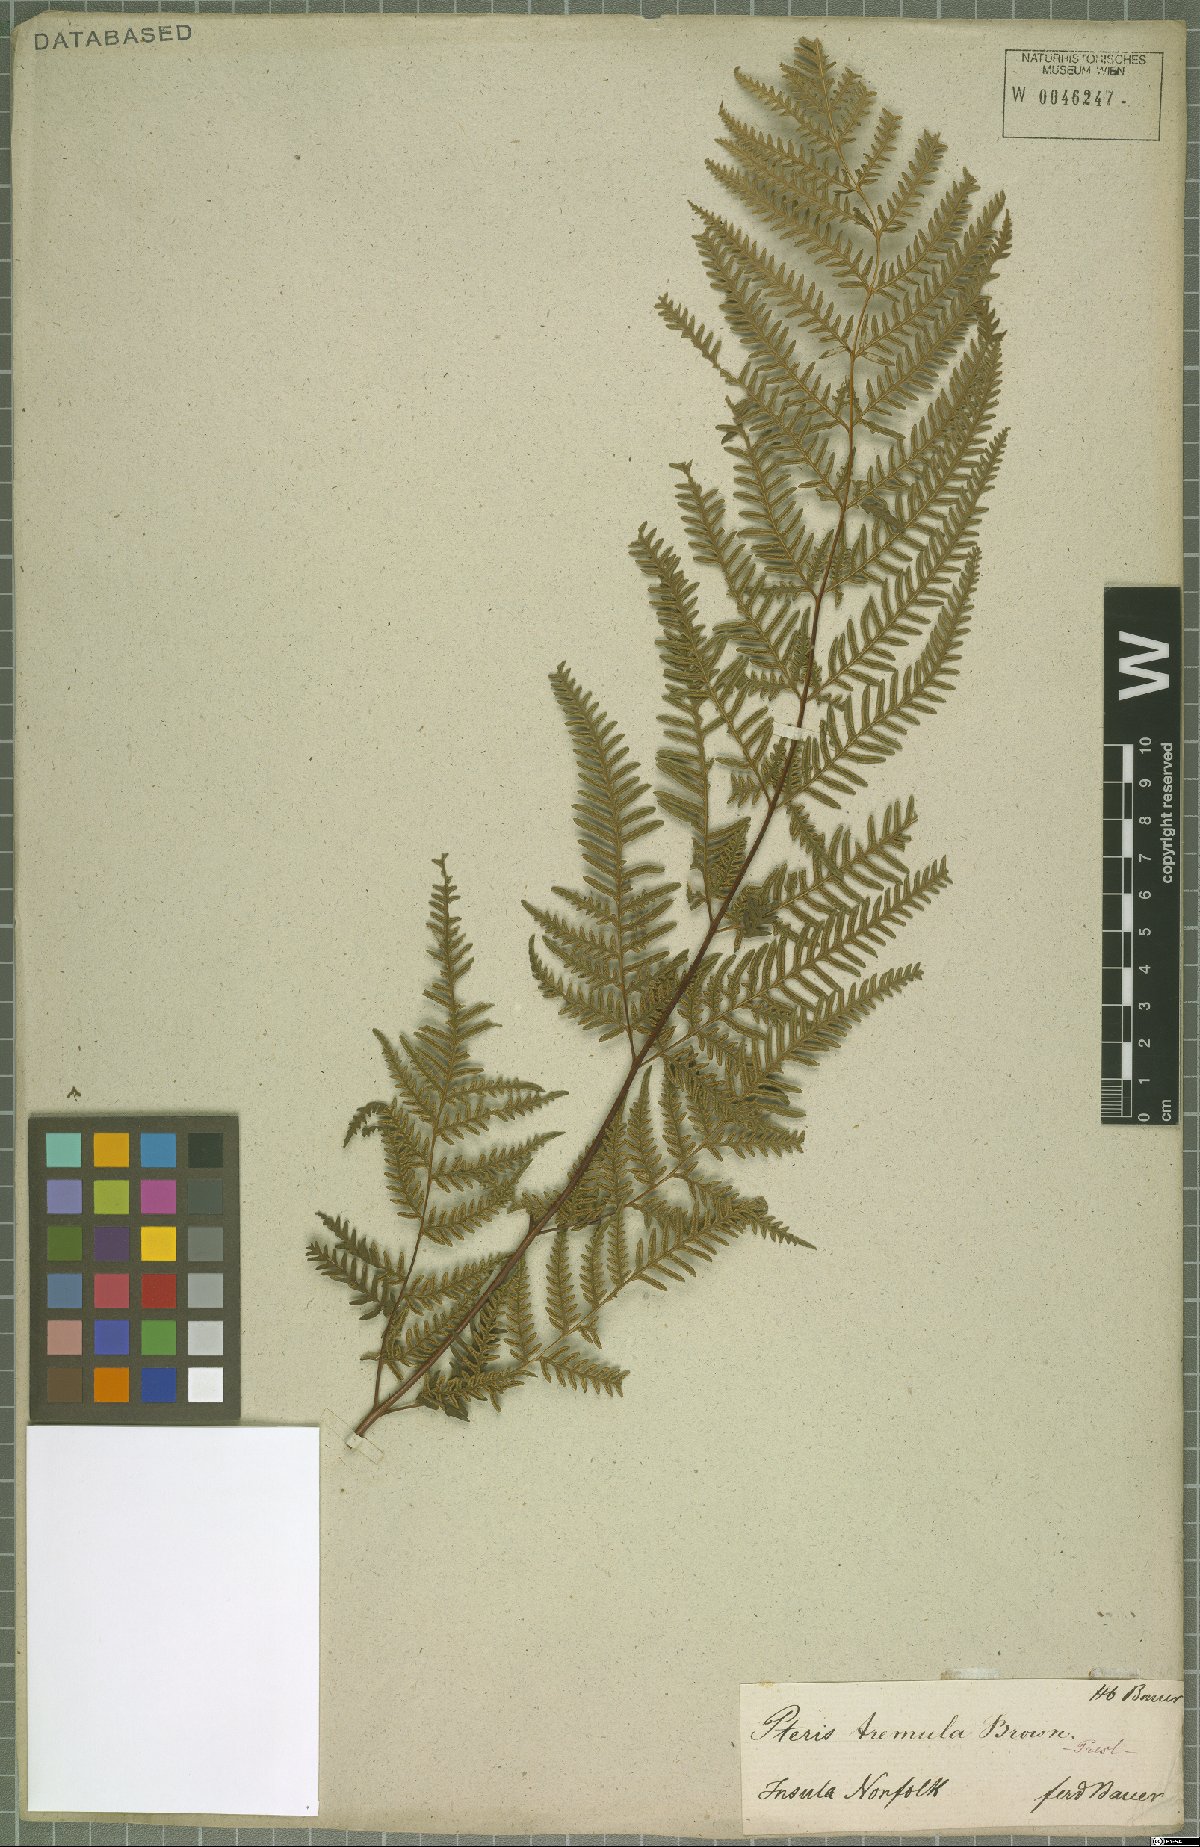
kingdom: Plantae
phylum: Tracheophyta
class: Polypodiopsida
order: Polypodiales
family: Pteridaceae
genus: Pteris
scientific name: Pteris tremula
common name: Australian brake
